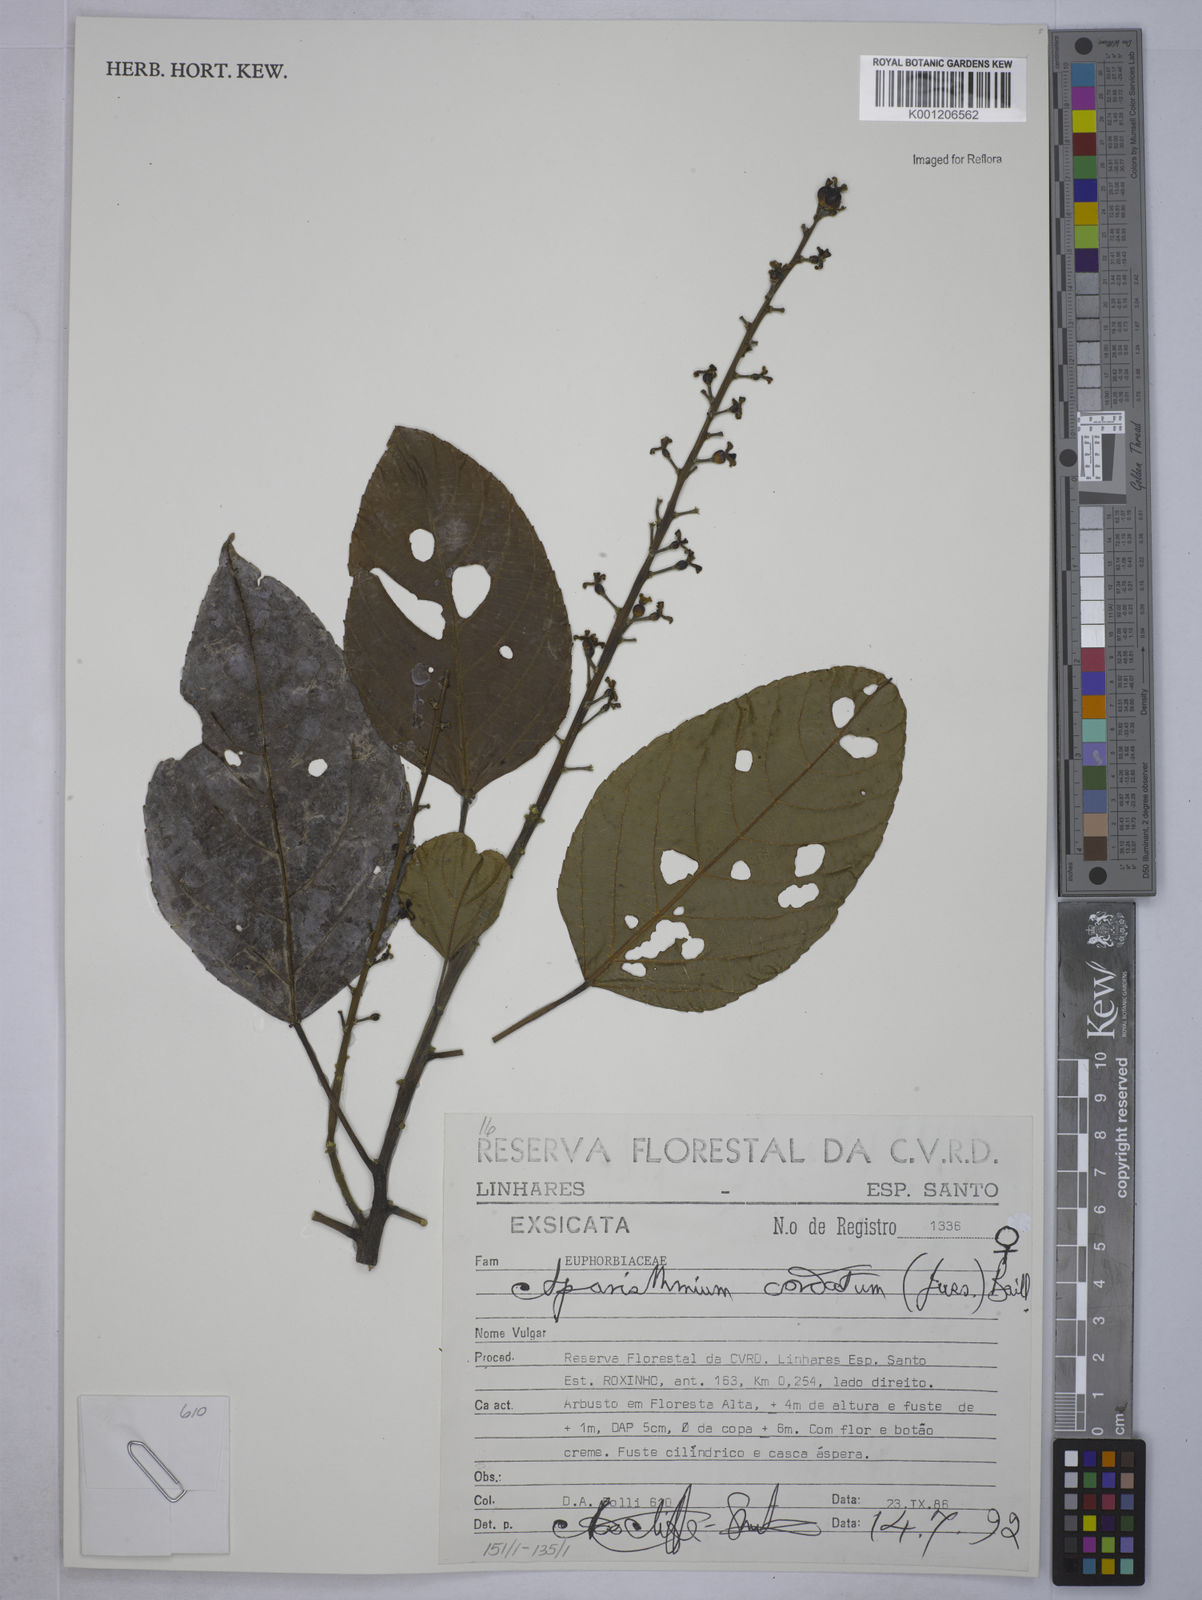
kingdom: Plantae
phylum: Tracheophyta
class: Magnoliopsida
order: Malpighiales
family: Euphorbiaceae
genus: Aparisthmium
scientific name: Aparisthmium cordatum
